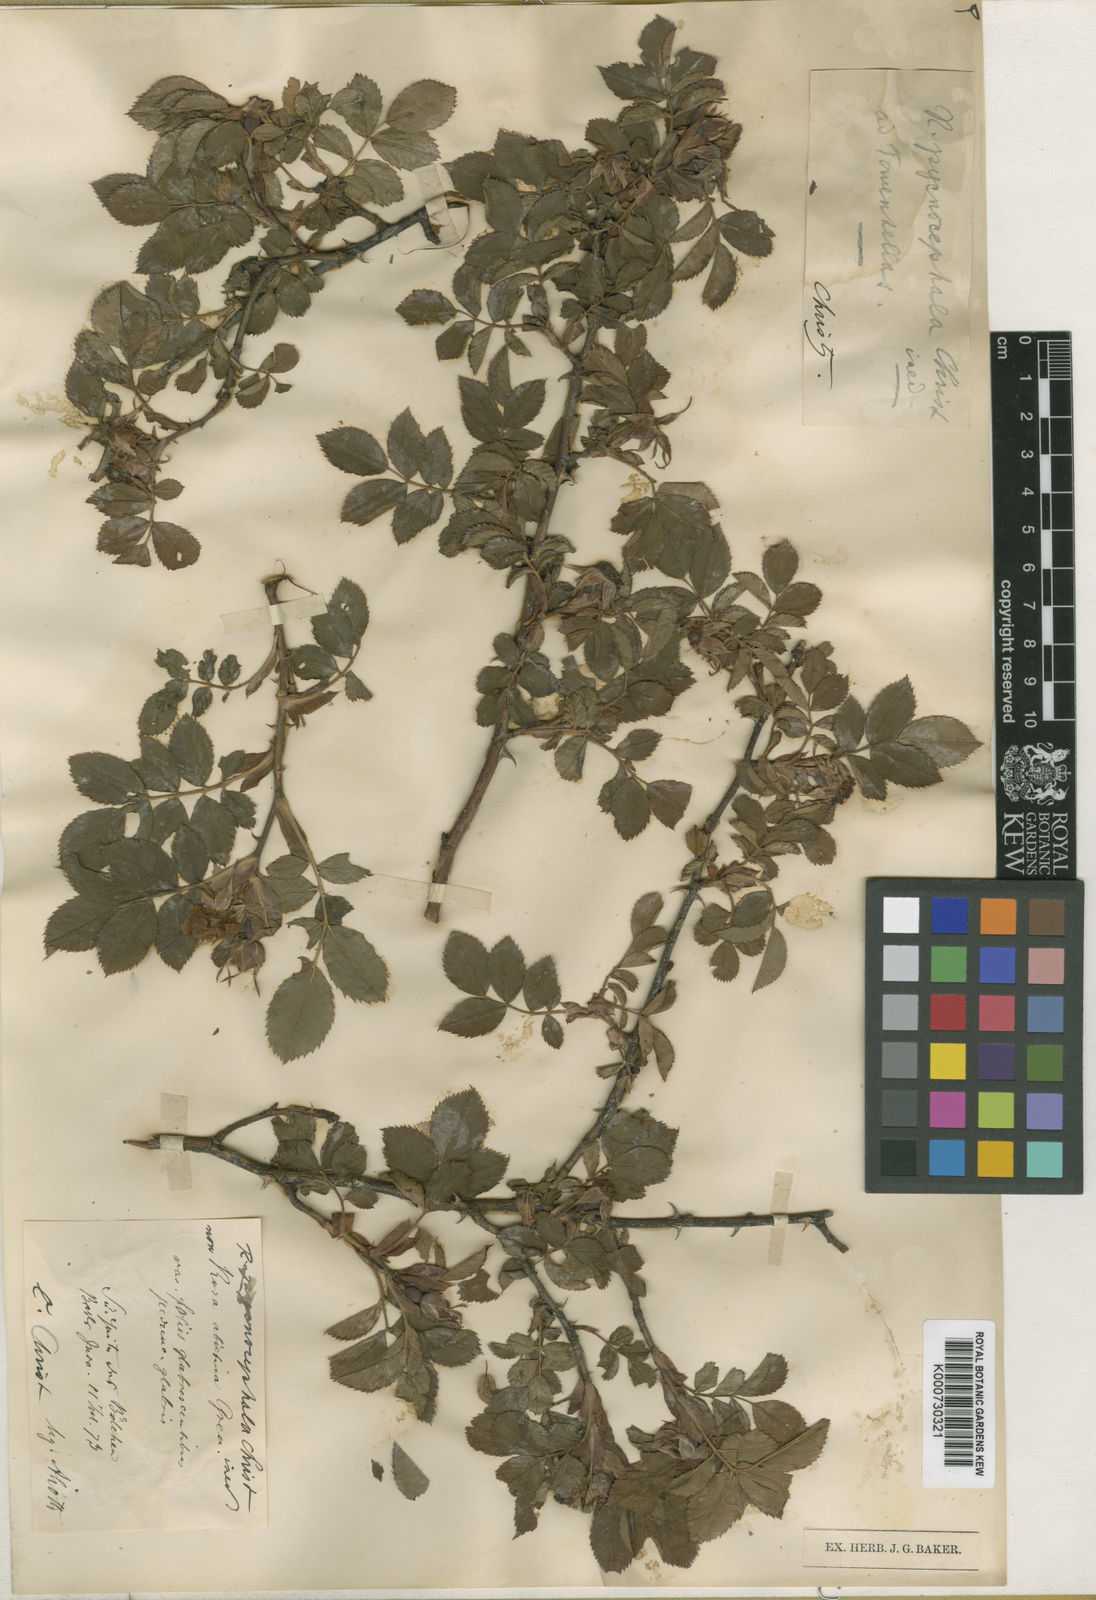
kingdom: Plantae
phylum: Tracheophyta
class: Magnoliopsida
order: Rosales
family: Rosaceae
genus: Rosa
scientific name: Rosa uriensis
